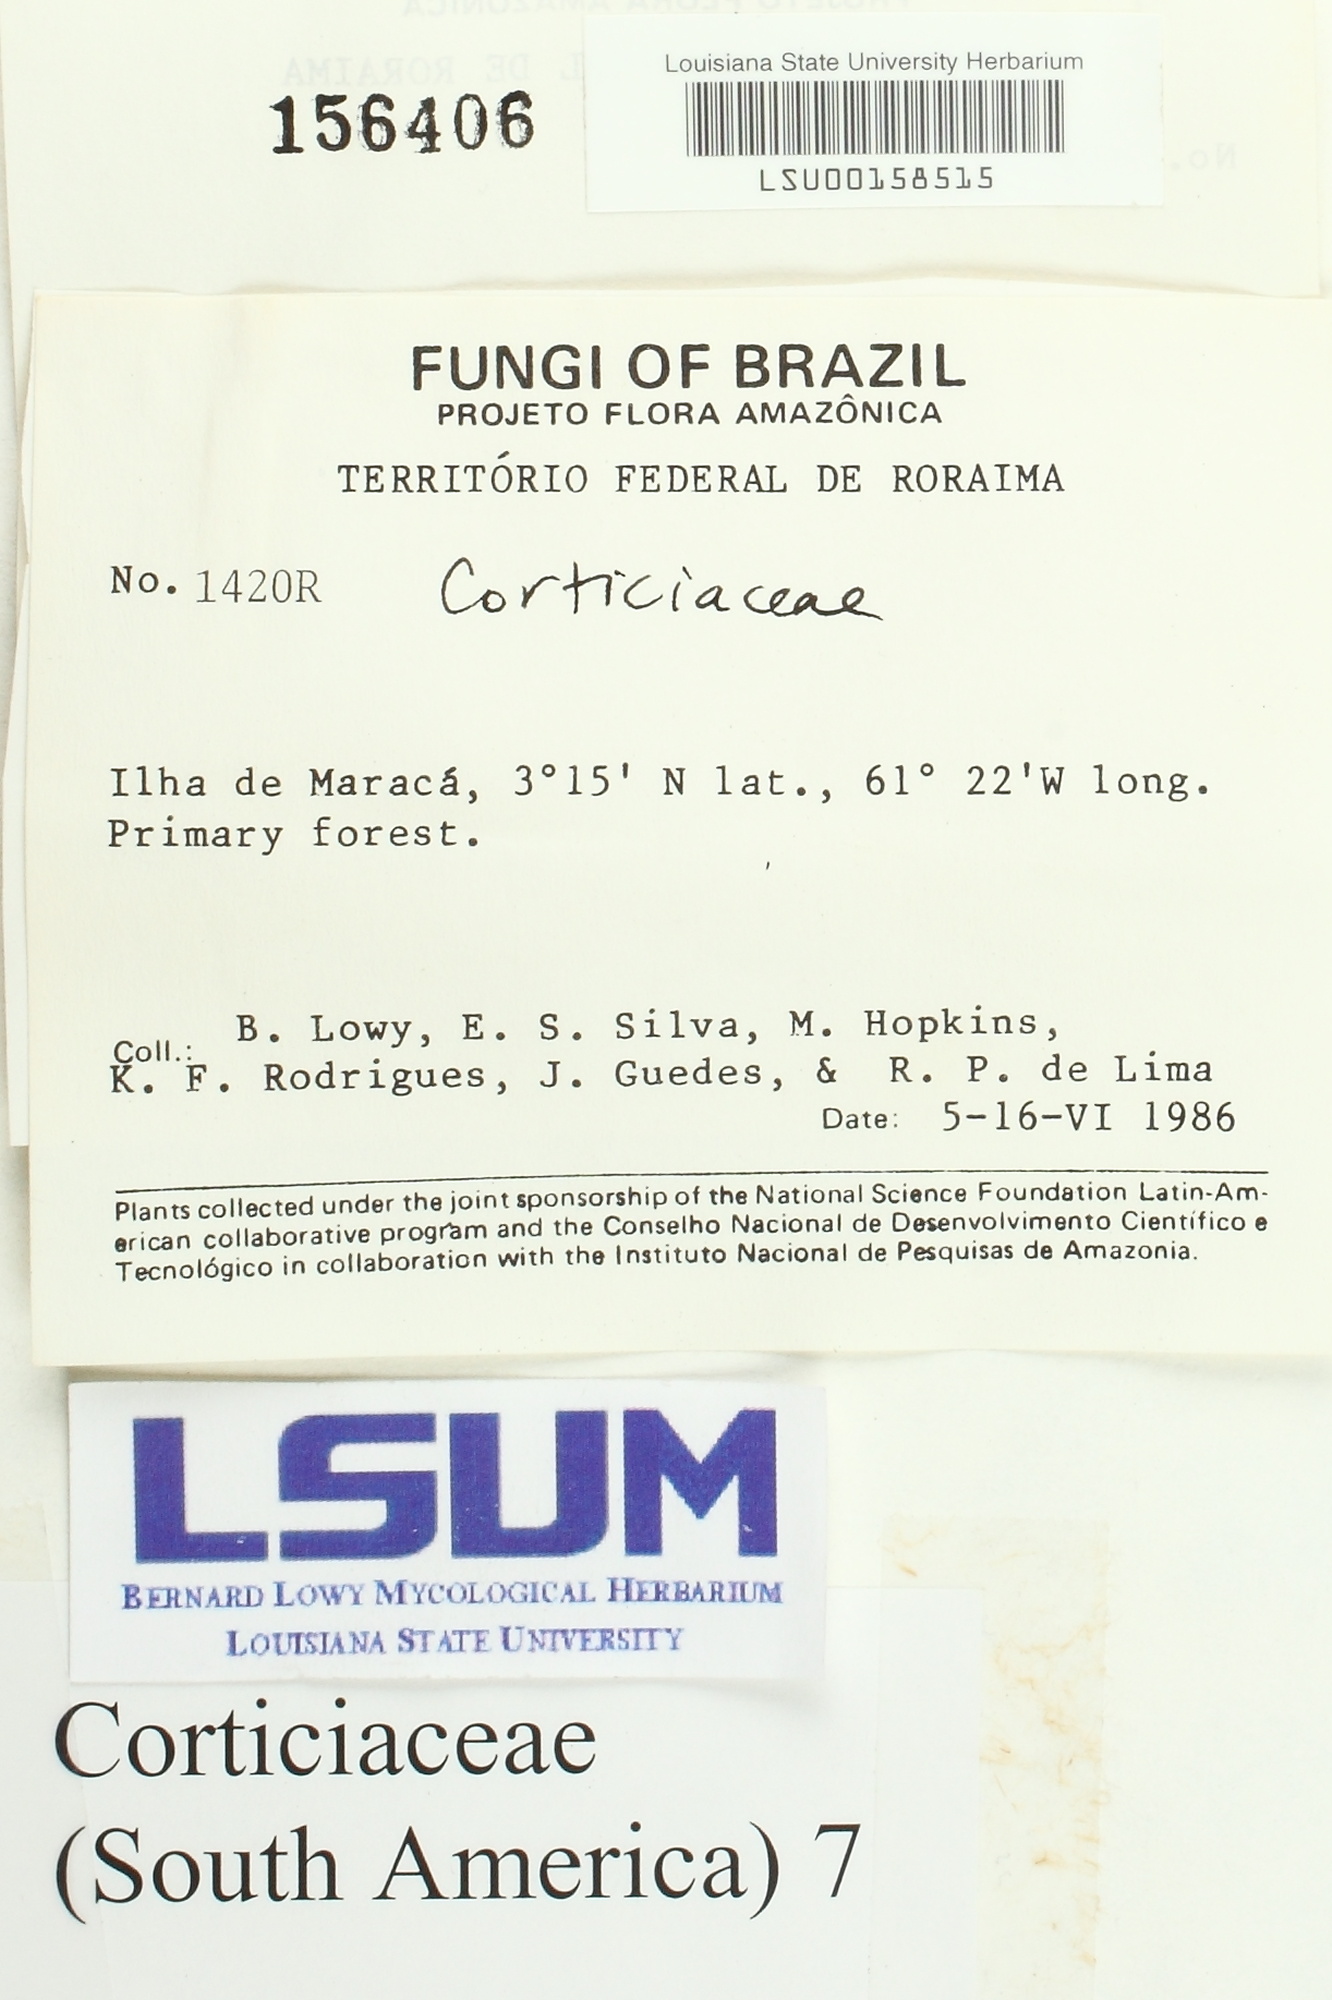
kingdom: Fungi
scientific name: Fungi
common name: Fungi
